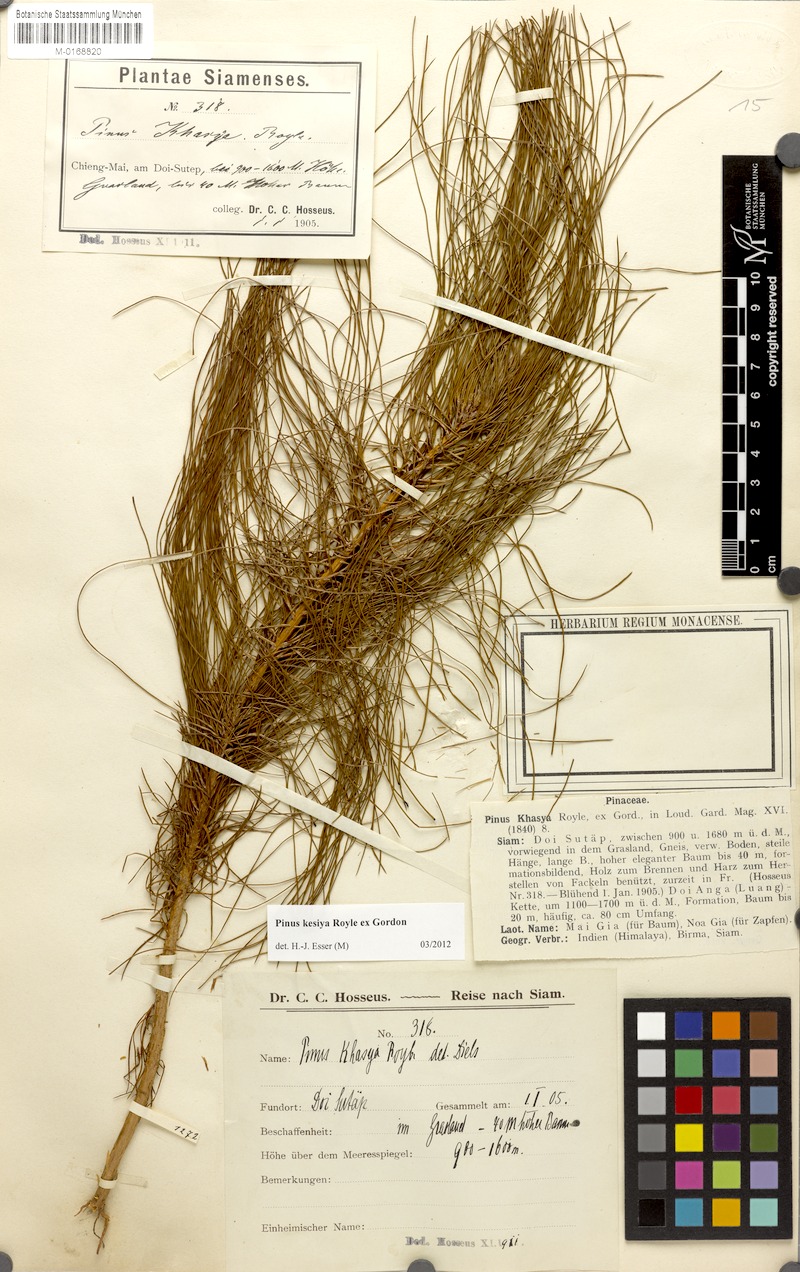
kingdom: Plantae
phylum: Tracheophyta
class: Pinopsida
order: Pinales
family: Pinaceae
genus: Pinus
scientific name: Pinus kesiya
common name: Benguet pine
